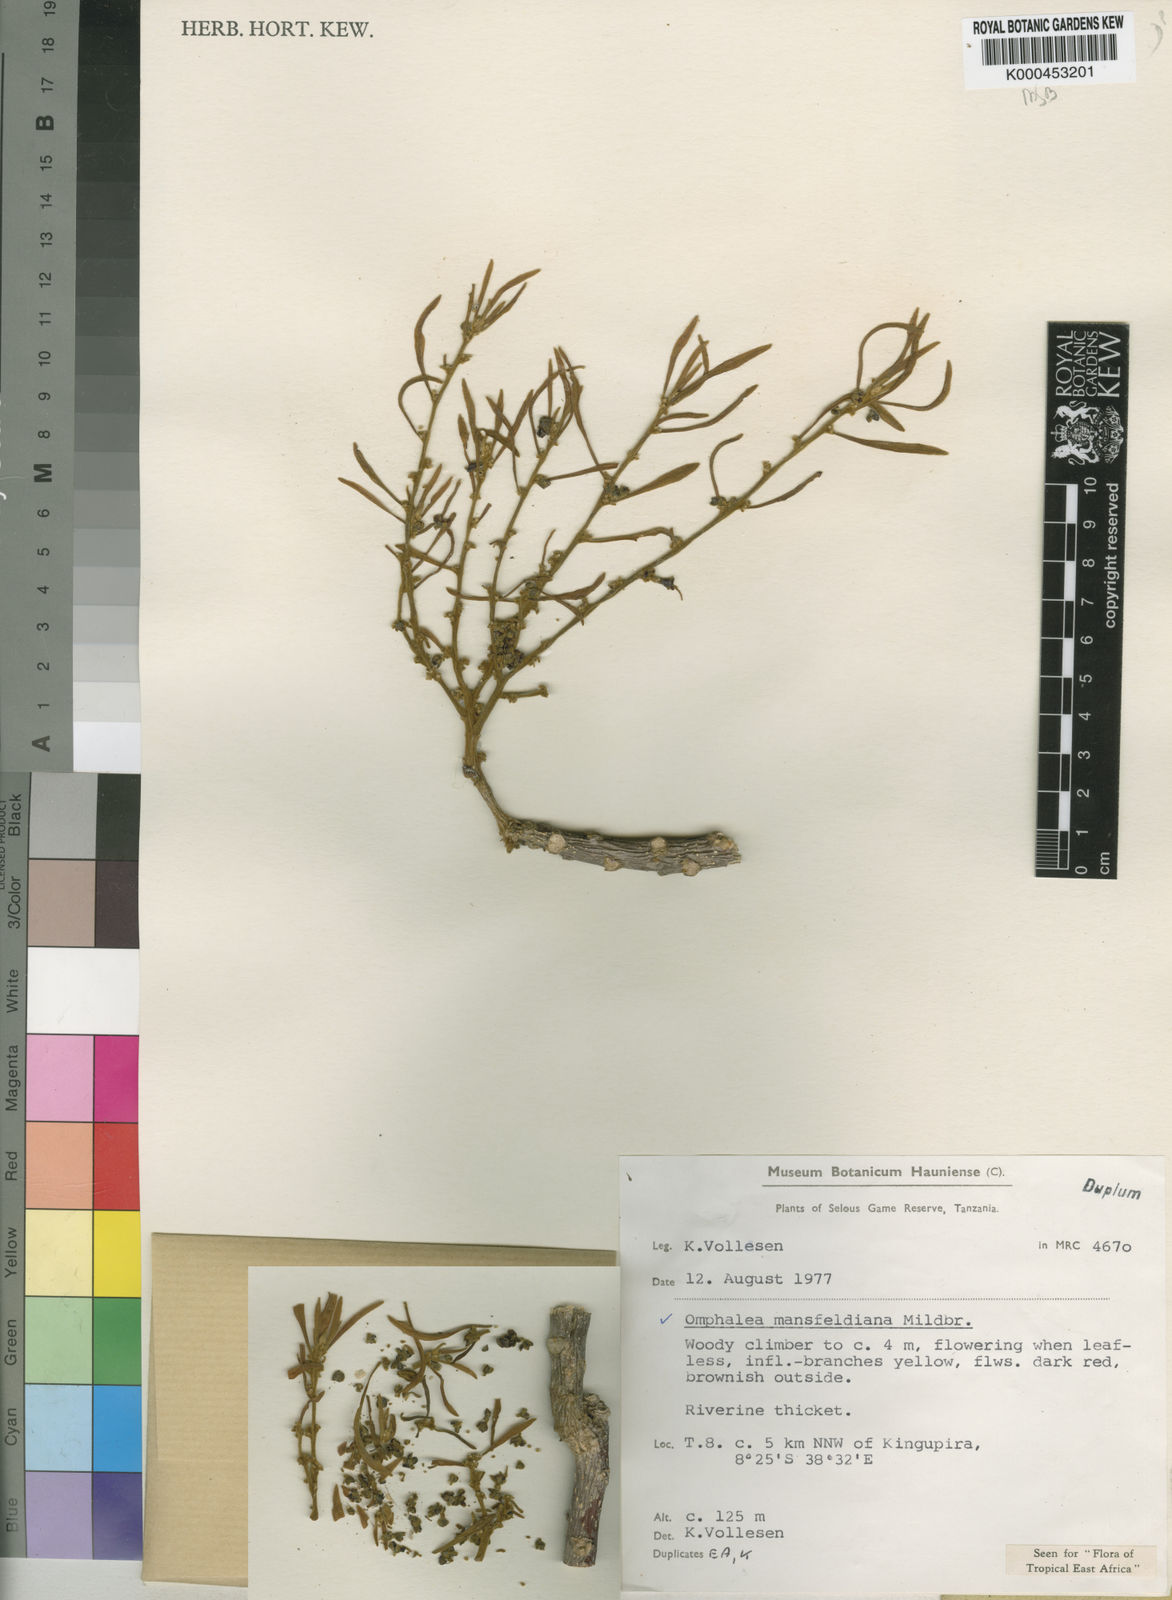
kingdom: Plantae
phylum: Tracheophyta
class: Magnoliopsida
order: Malpighiales
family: Euphorbiaceae
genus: Omphalea
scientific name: Omphalea mansfeldiana
